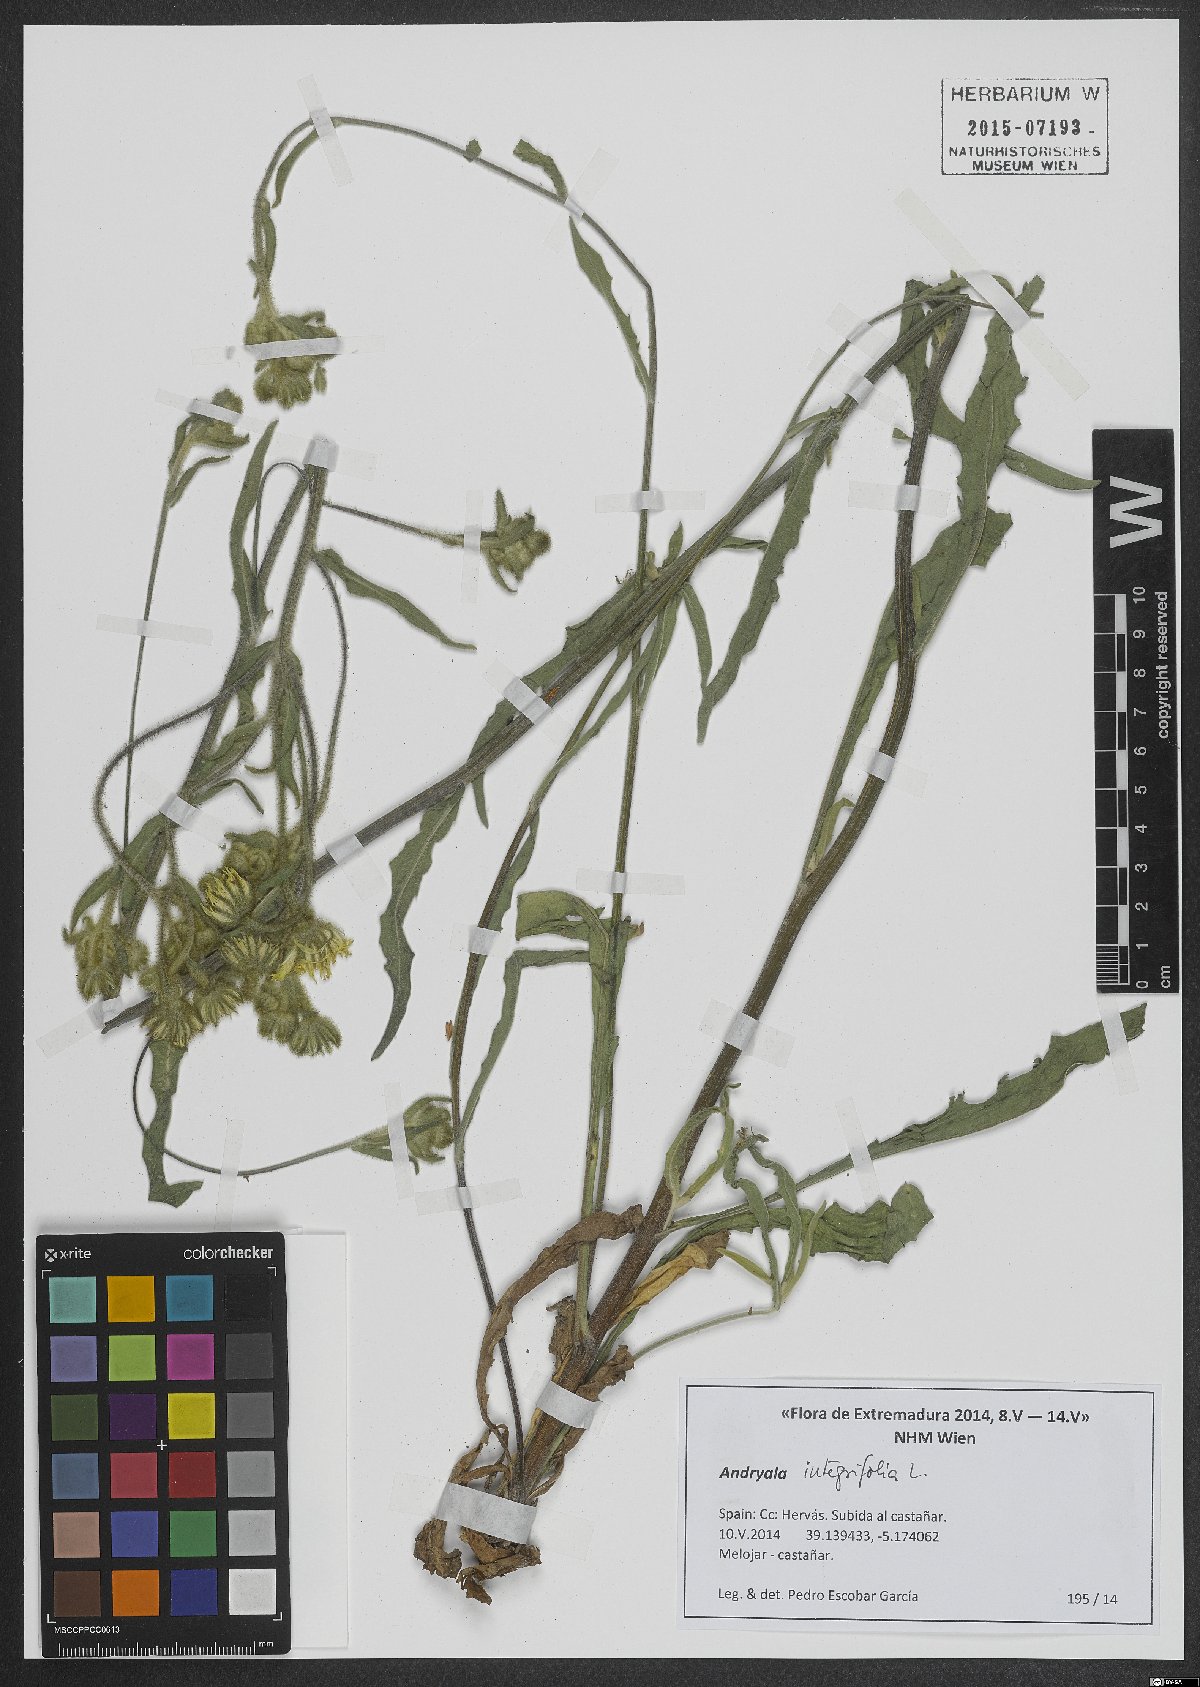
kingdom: Plantae
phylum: Tracheophyta
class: Magnoliopsida
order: Asterales
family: Asteraceae
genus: Andryala
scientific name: Andryala integrifolia
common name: Common andryala
